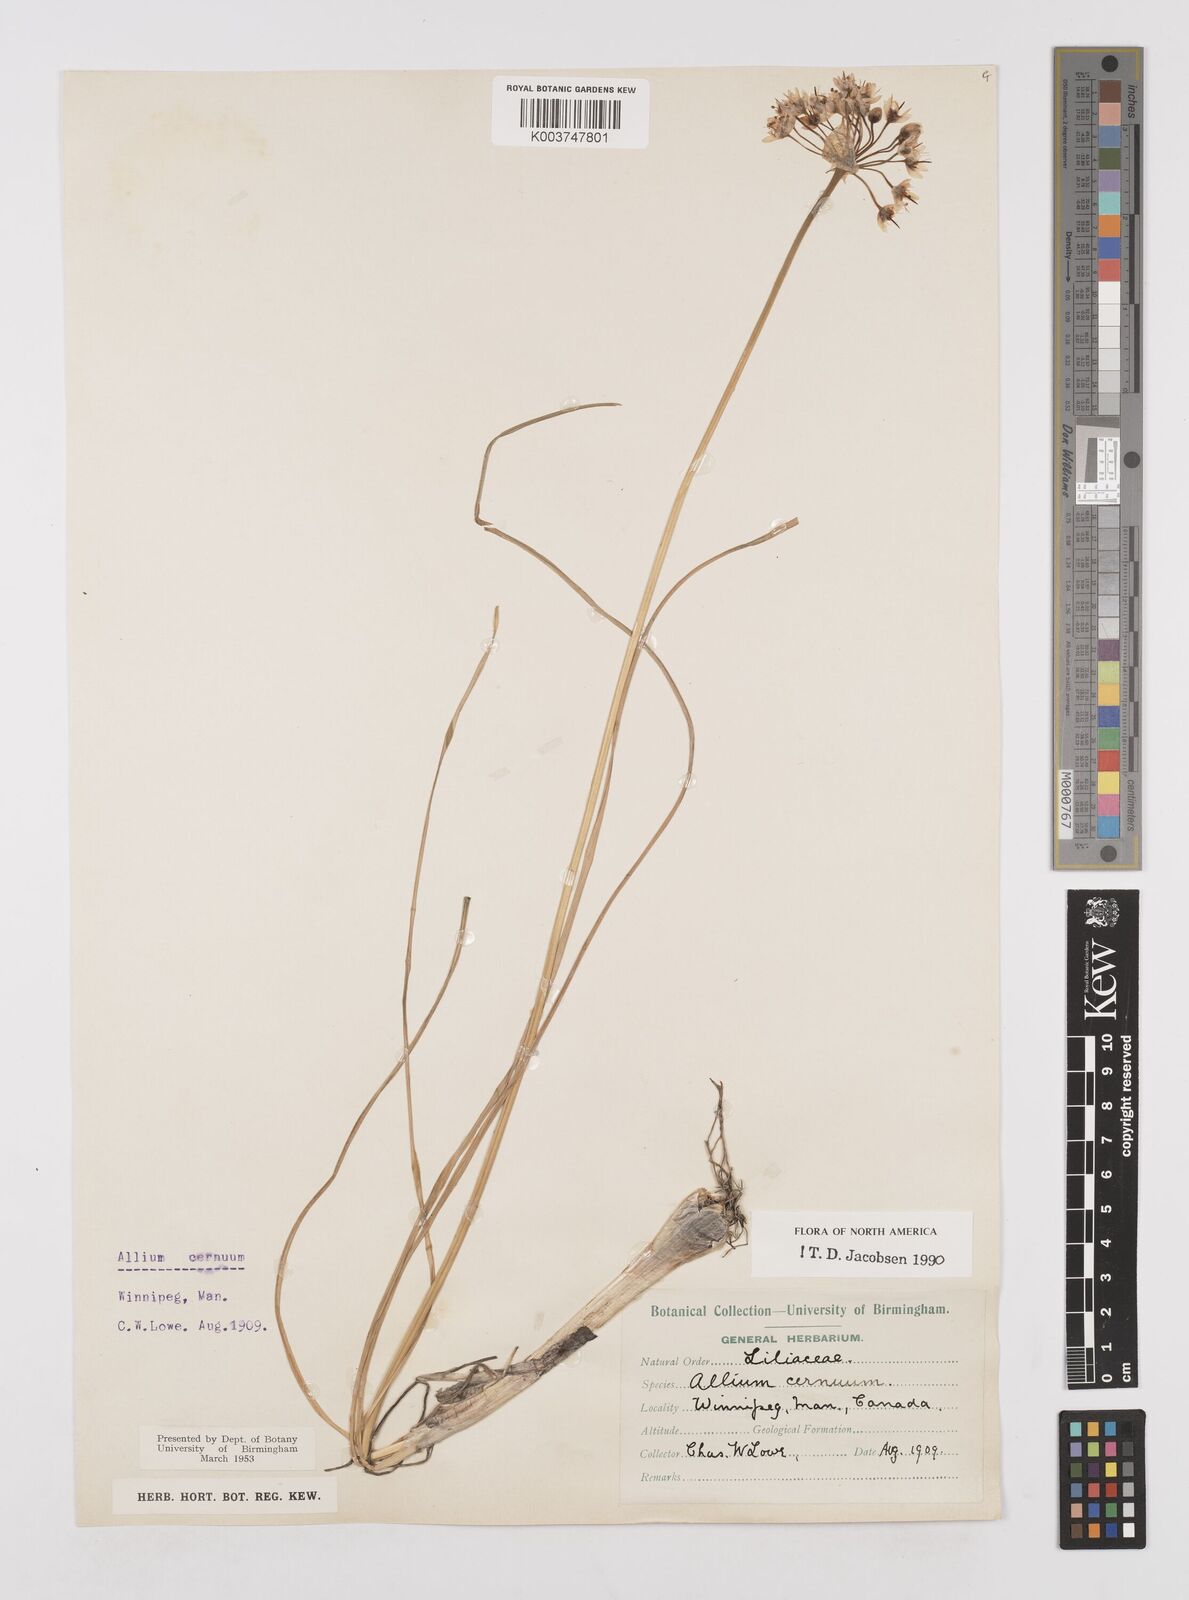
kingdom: Plantae
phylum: Tracheophyta
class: Liliopsida
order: Asparagales
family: Amaryllidaceae
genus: Allium
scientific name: Allium cernuum
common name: Nodding onion
